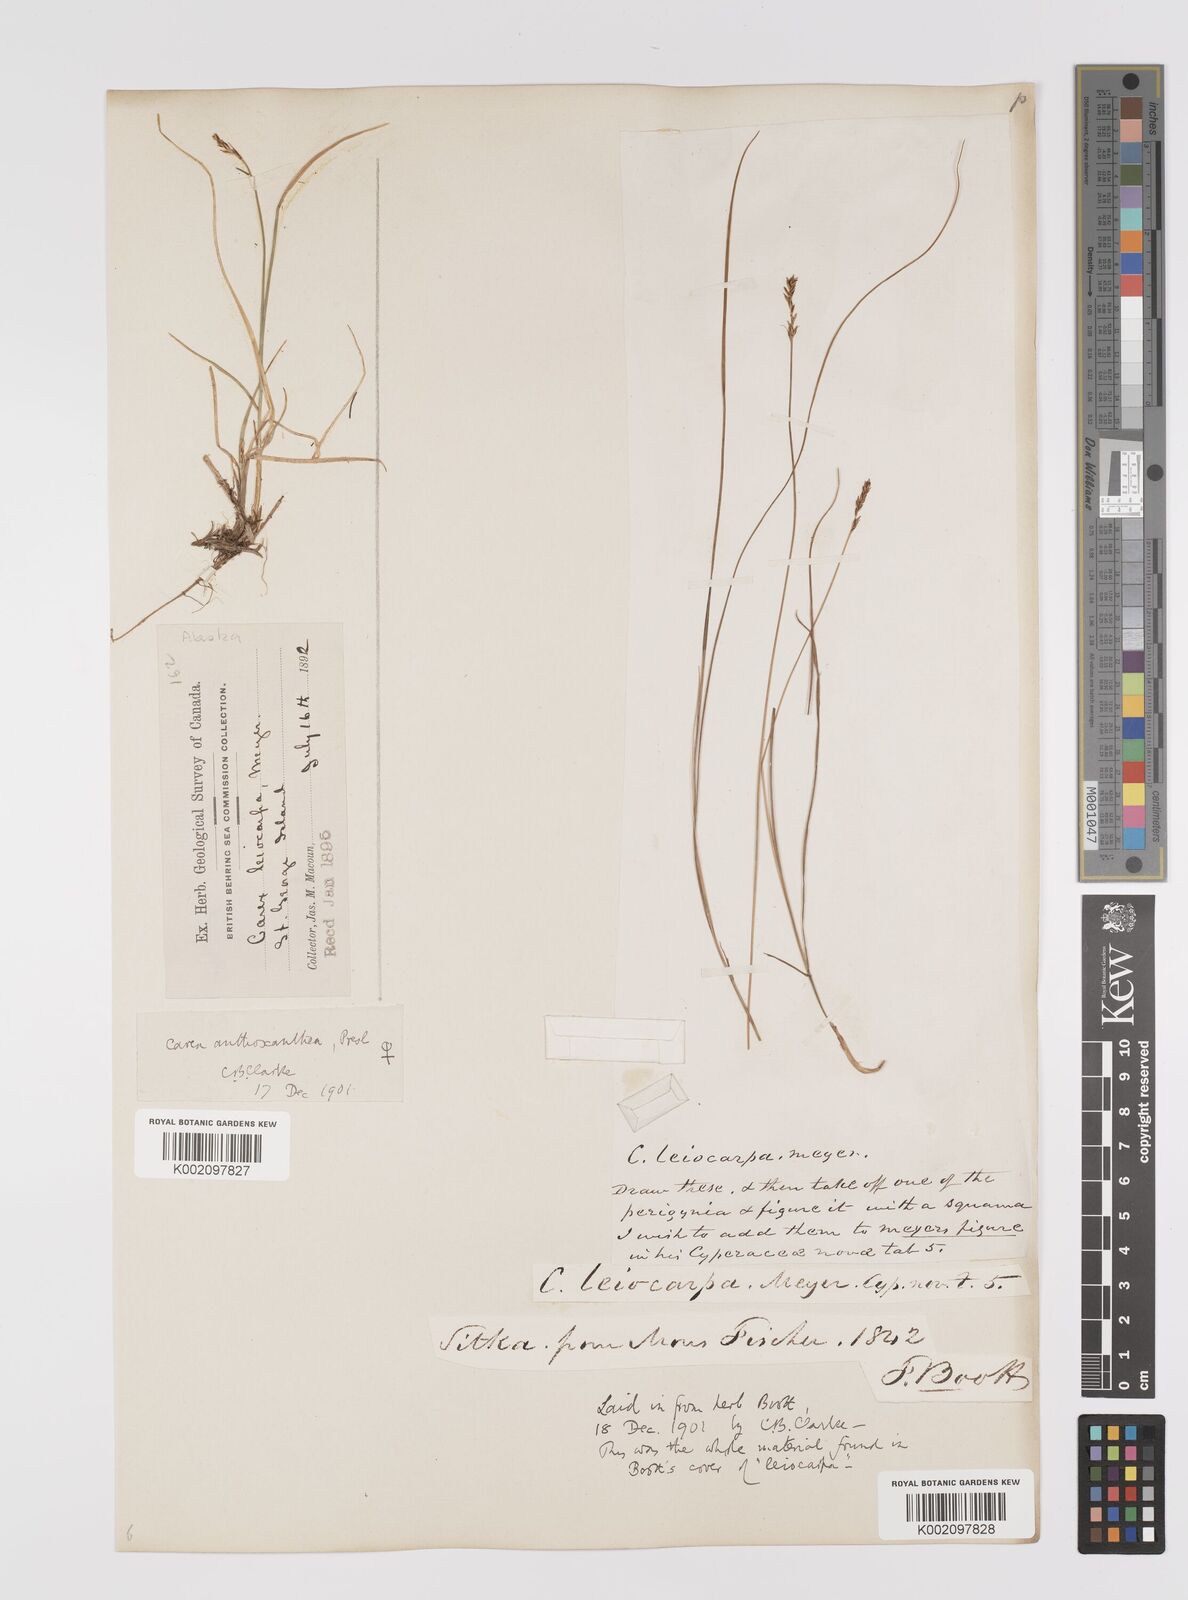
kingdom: Plantae
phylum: Tracheophyta
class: Liliopsida
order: Poales
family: Cyperaceae
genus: Carex
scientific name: Carex anthoxanthea
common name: Grassy-slope arctic sedge
